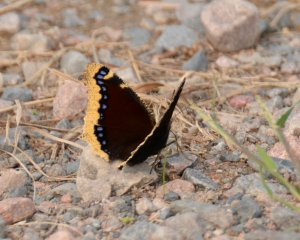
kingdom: Animalia
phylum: Arthropoda
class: Insecta
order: Lepidoptera
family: Nymphalidae
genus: Nymphalis
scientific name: Nymphalis antiopa
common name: Mourning Cloak
